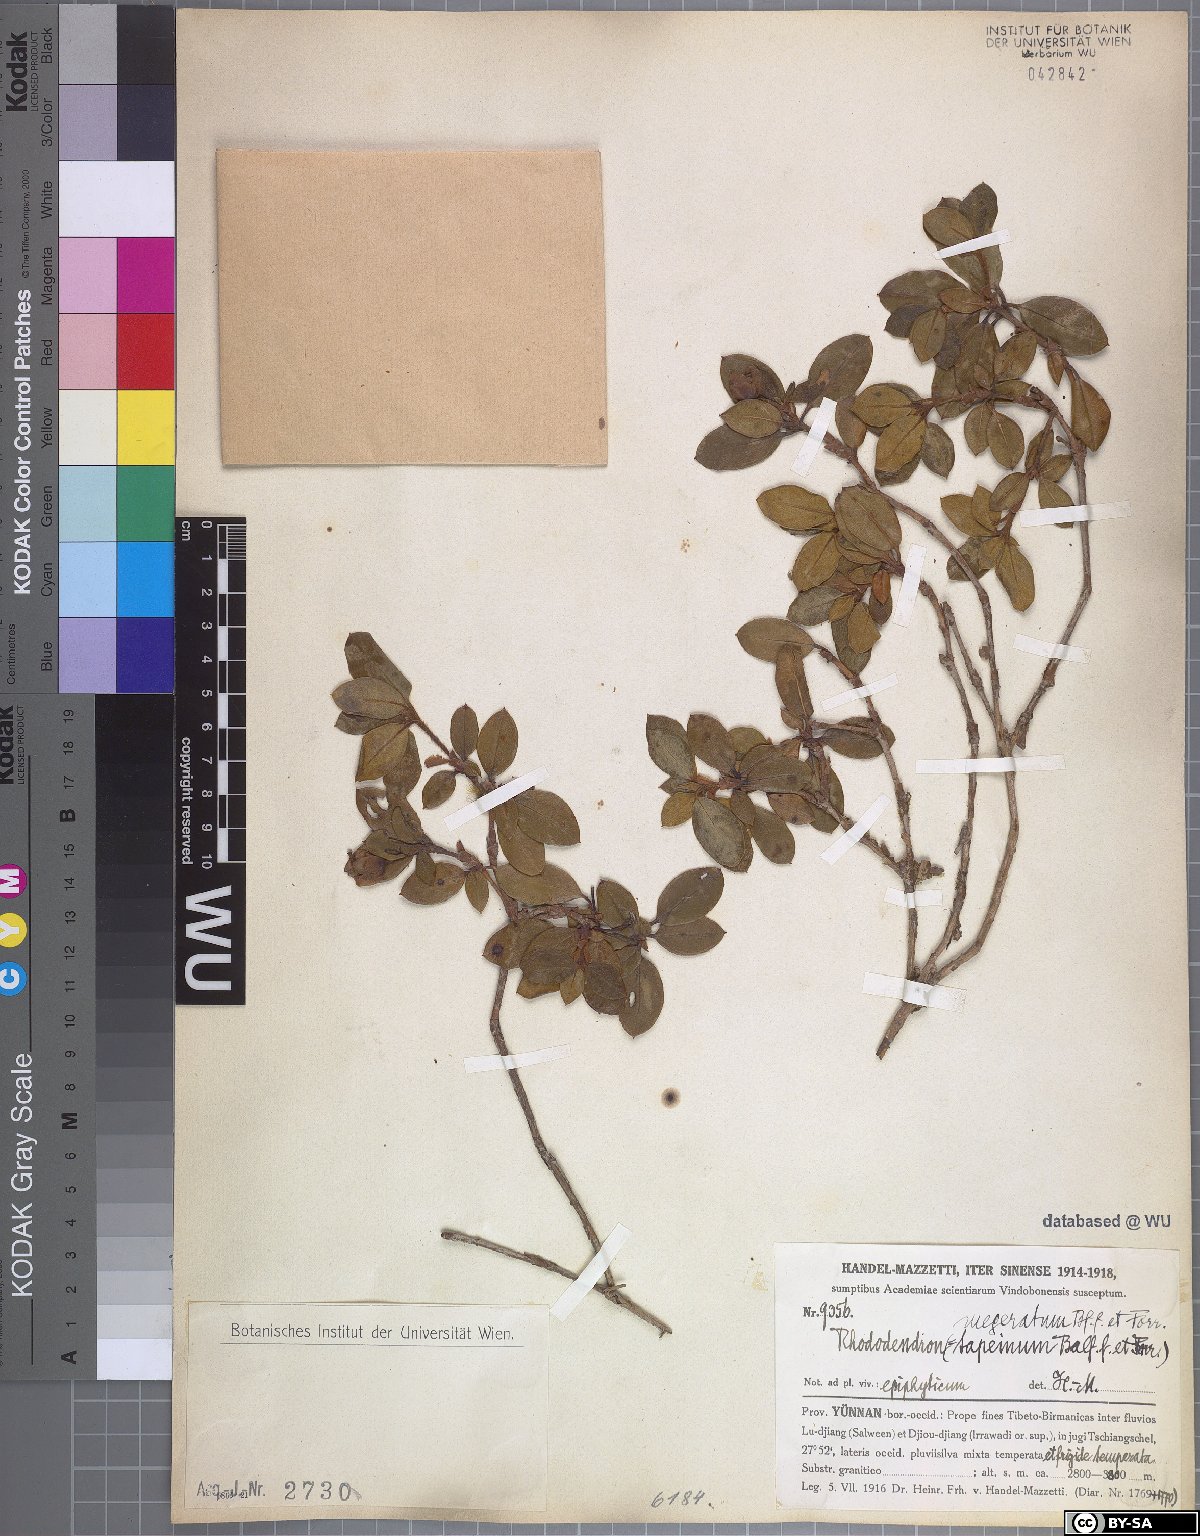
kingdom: Plantae
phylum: Tracheophyta
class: Magnoliopsida
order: Ericales
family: Ericaceae
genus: Rhododendron
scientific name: Rhododendron megeratum
